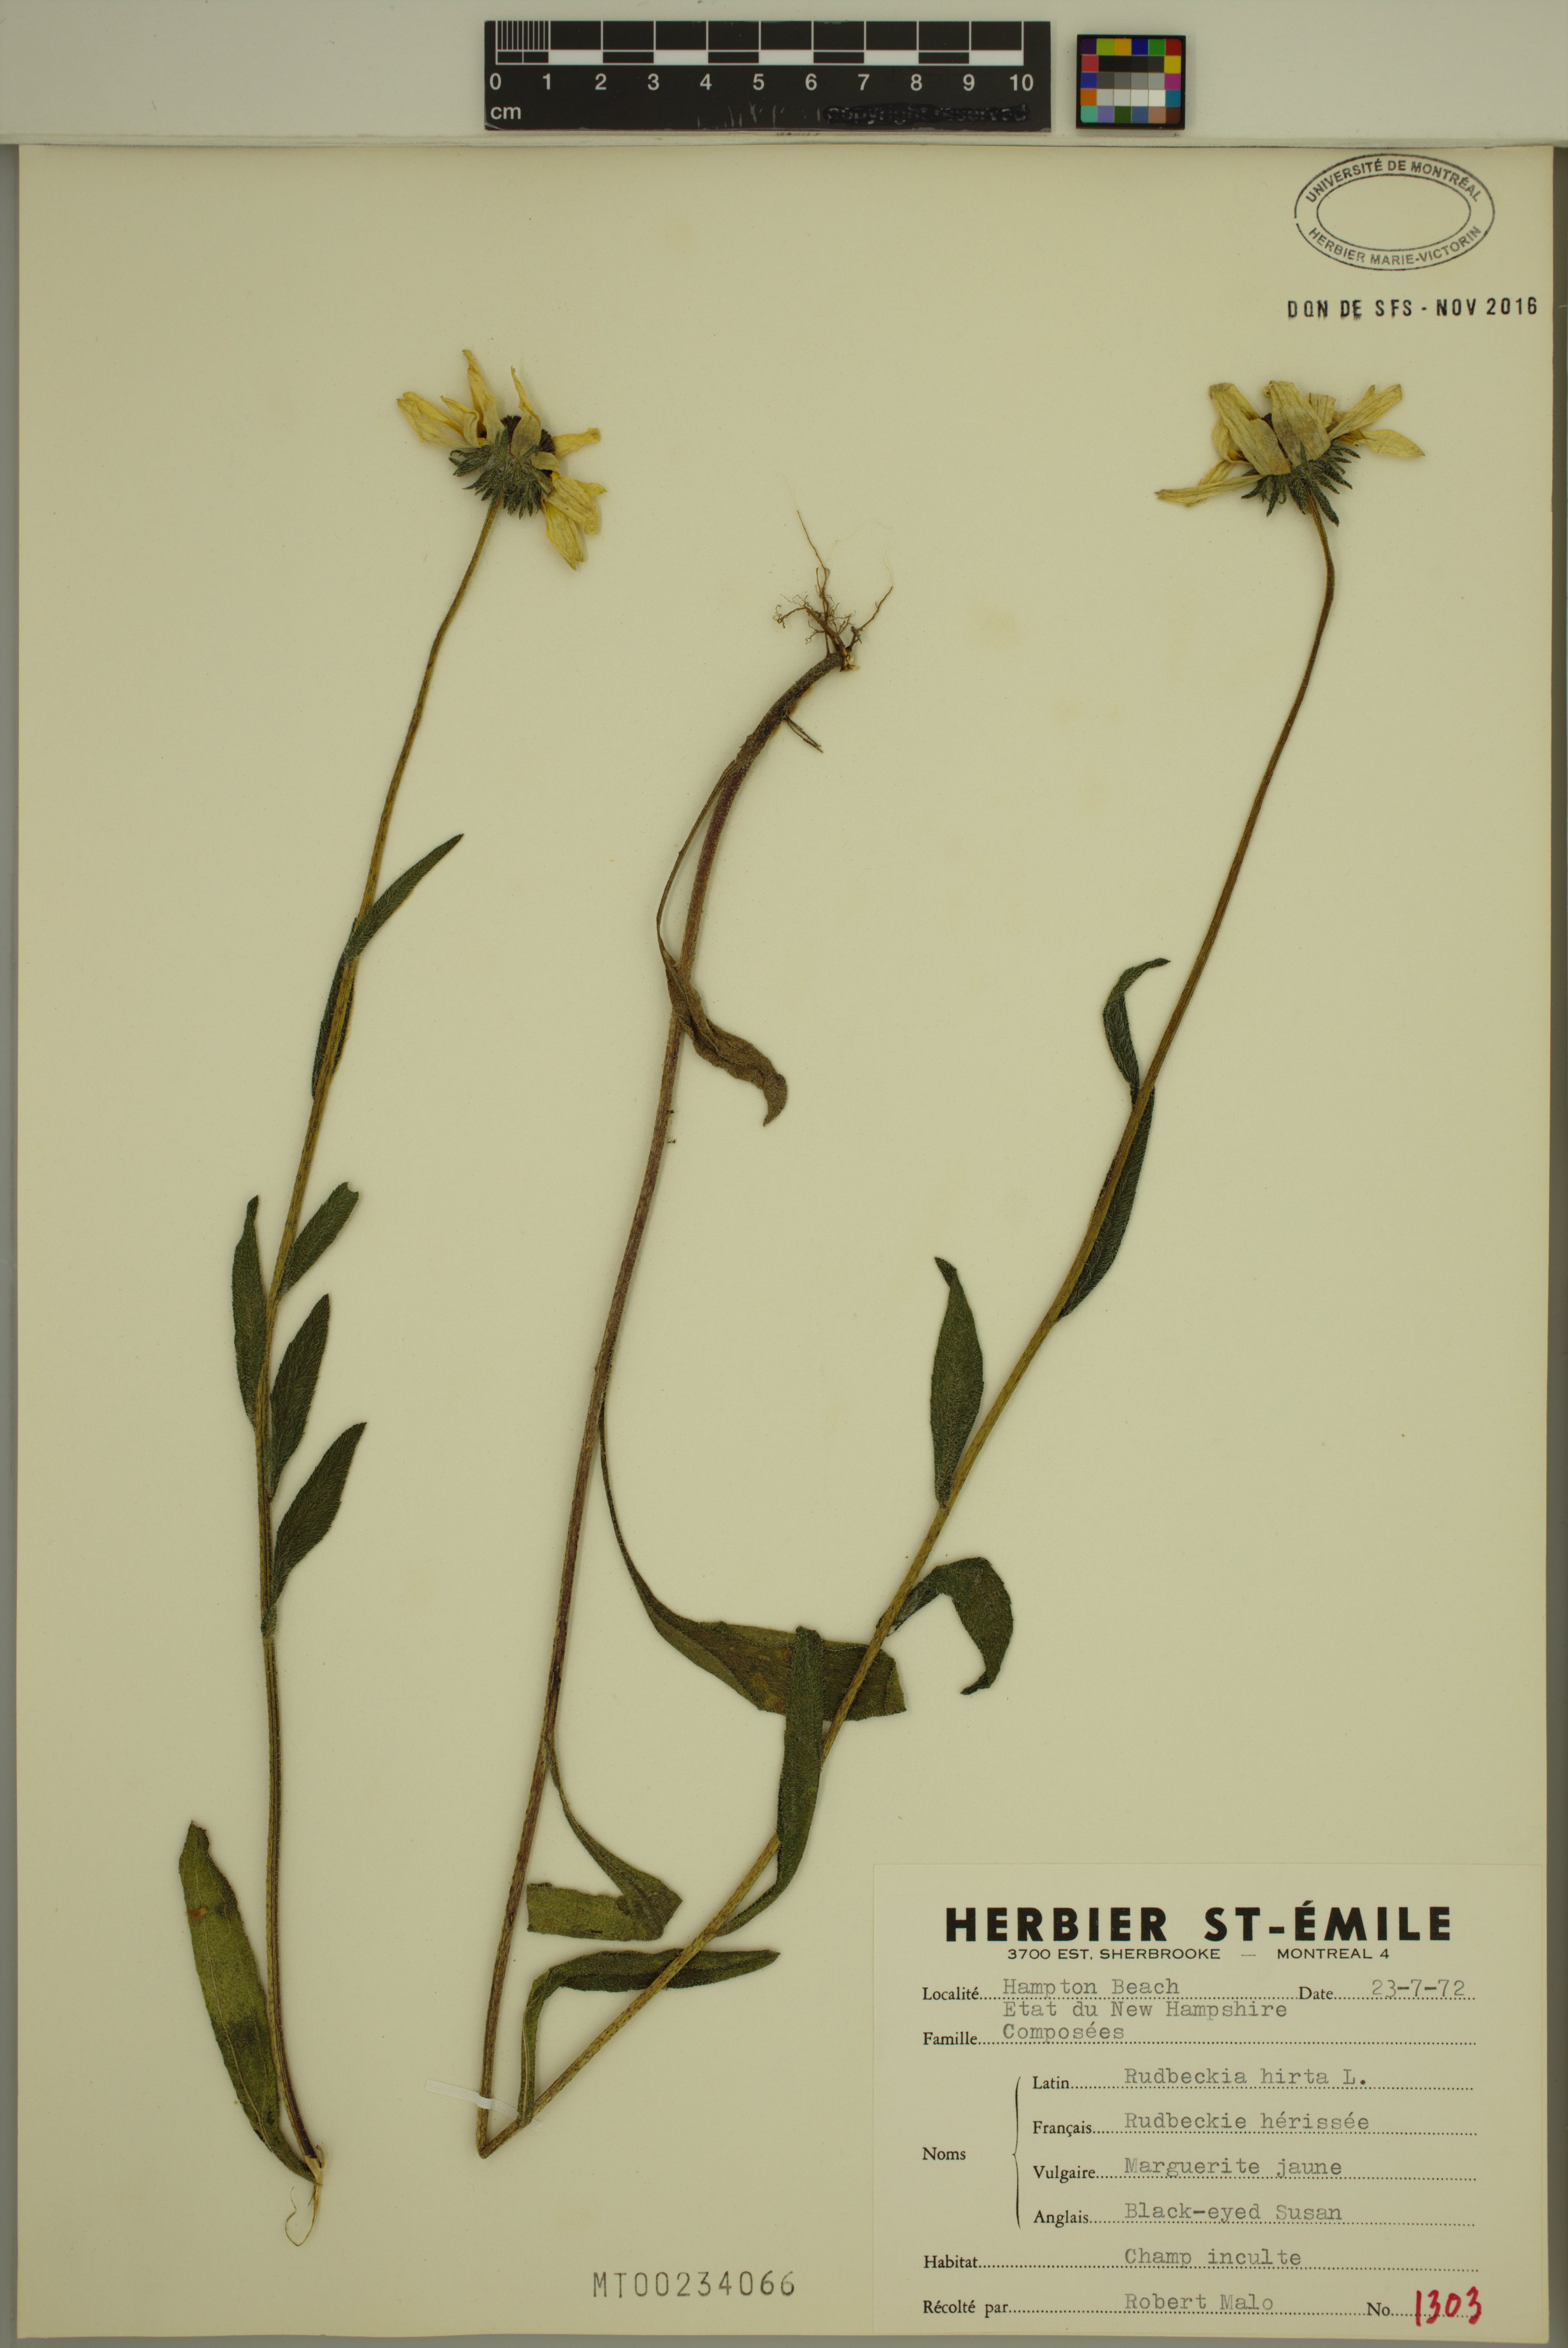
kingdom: Plantae
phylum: Tracheophyta
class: Magnoliopsida
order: Asterales
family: Asteraceae
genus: Rudbeckia
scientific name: Rudbeckia hirta
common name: Black-eyed-susan
